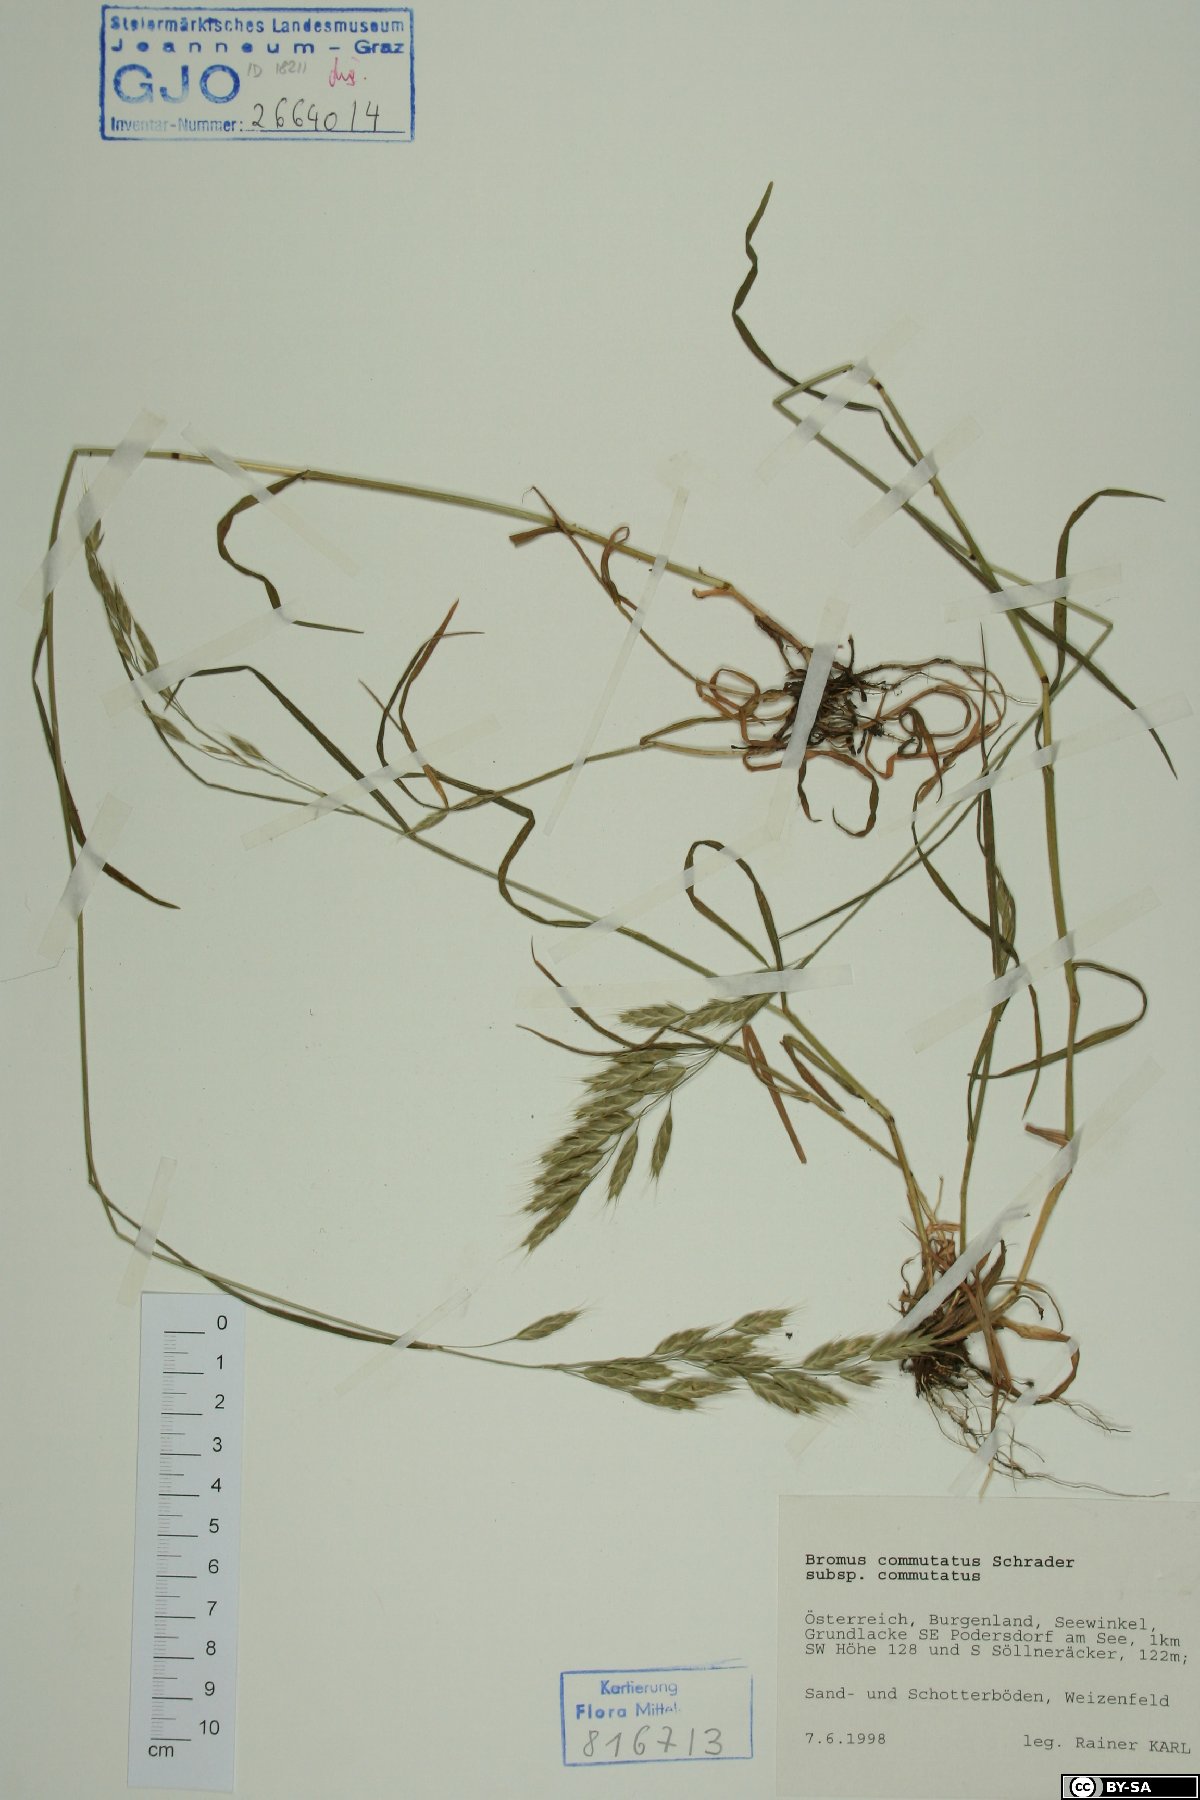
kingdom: Plantae
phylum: Tracheophyta
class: Liliopsida
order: Poales
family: Poaceae
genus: Bromus
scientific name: Bromus commutatus
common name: Meadow brome
